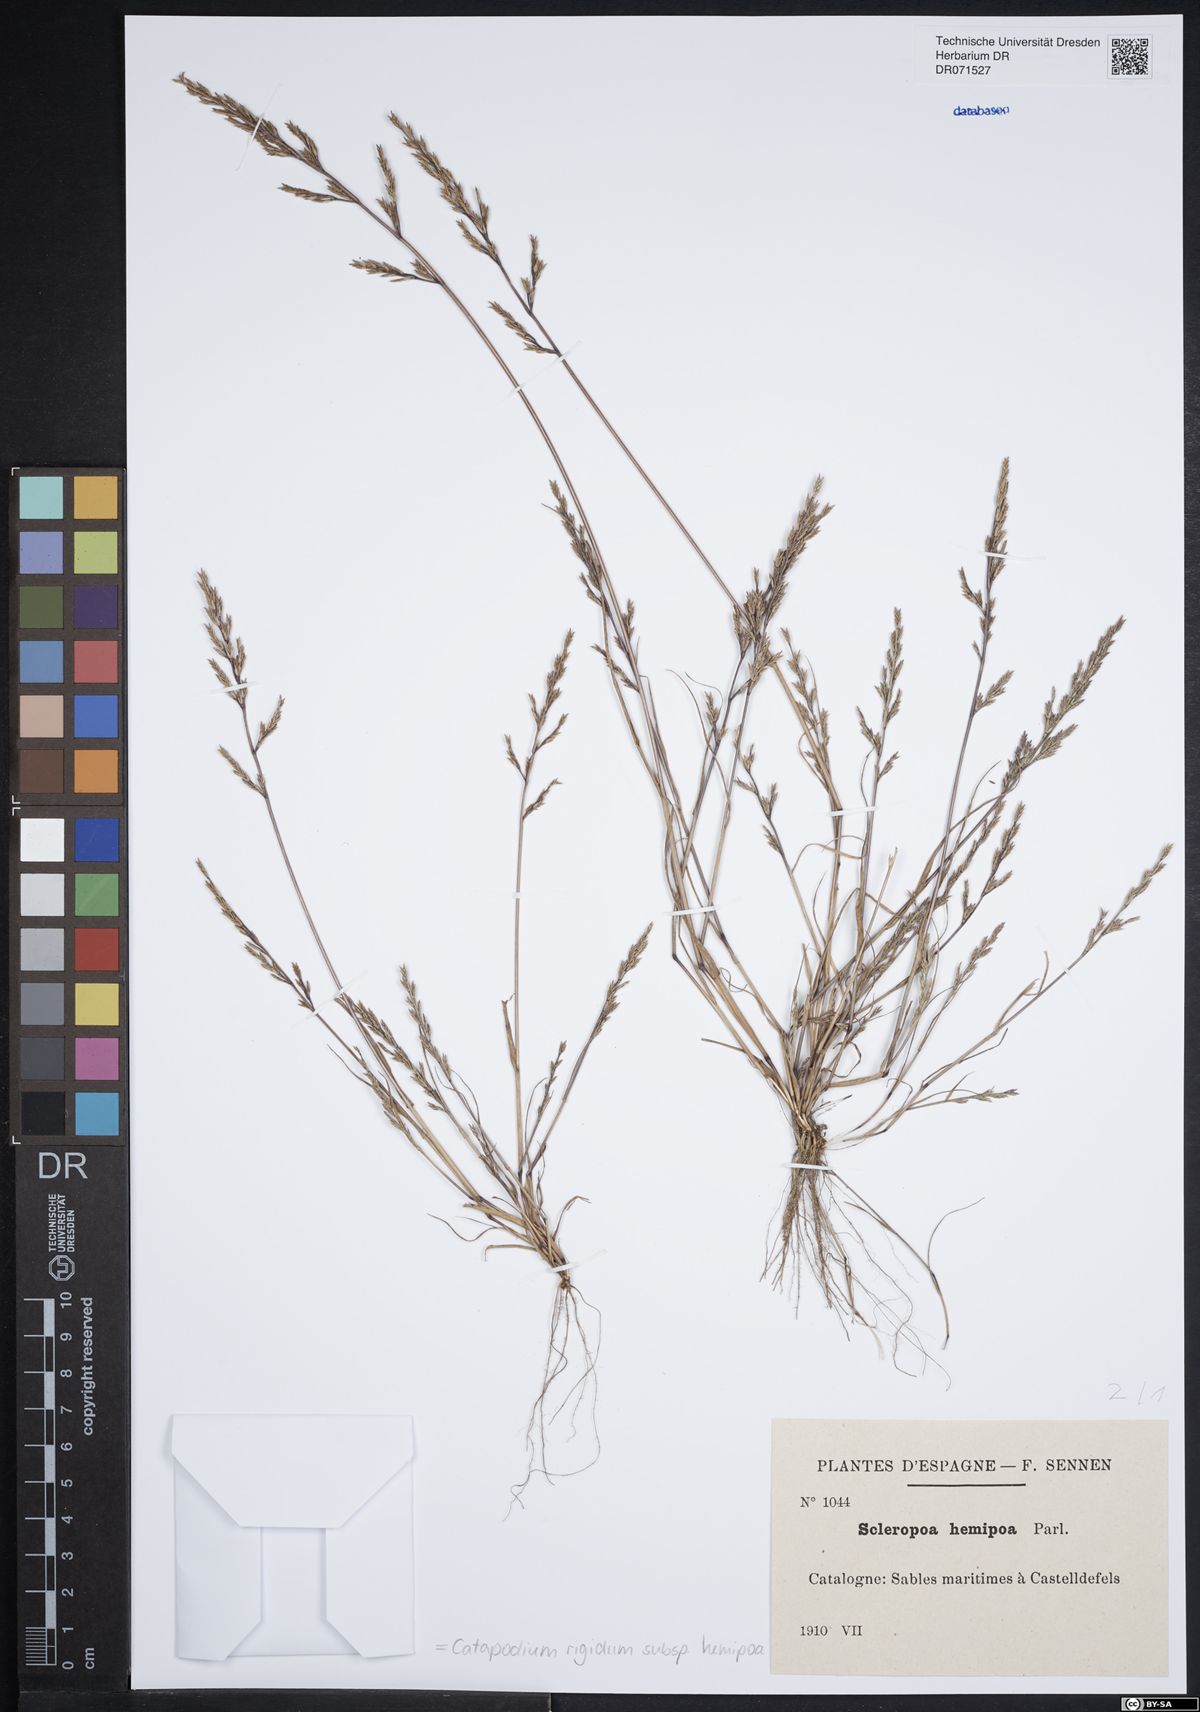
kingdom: Plantae
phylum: Tracheophyta
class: Liliopsida
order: Poales
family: Poaceae
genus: Catapodium
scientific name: Catapodium hemipoa
